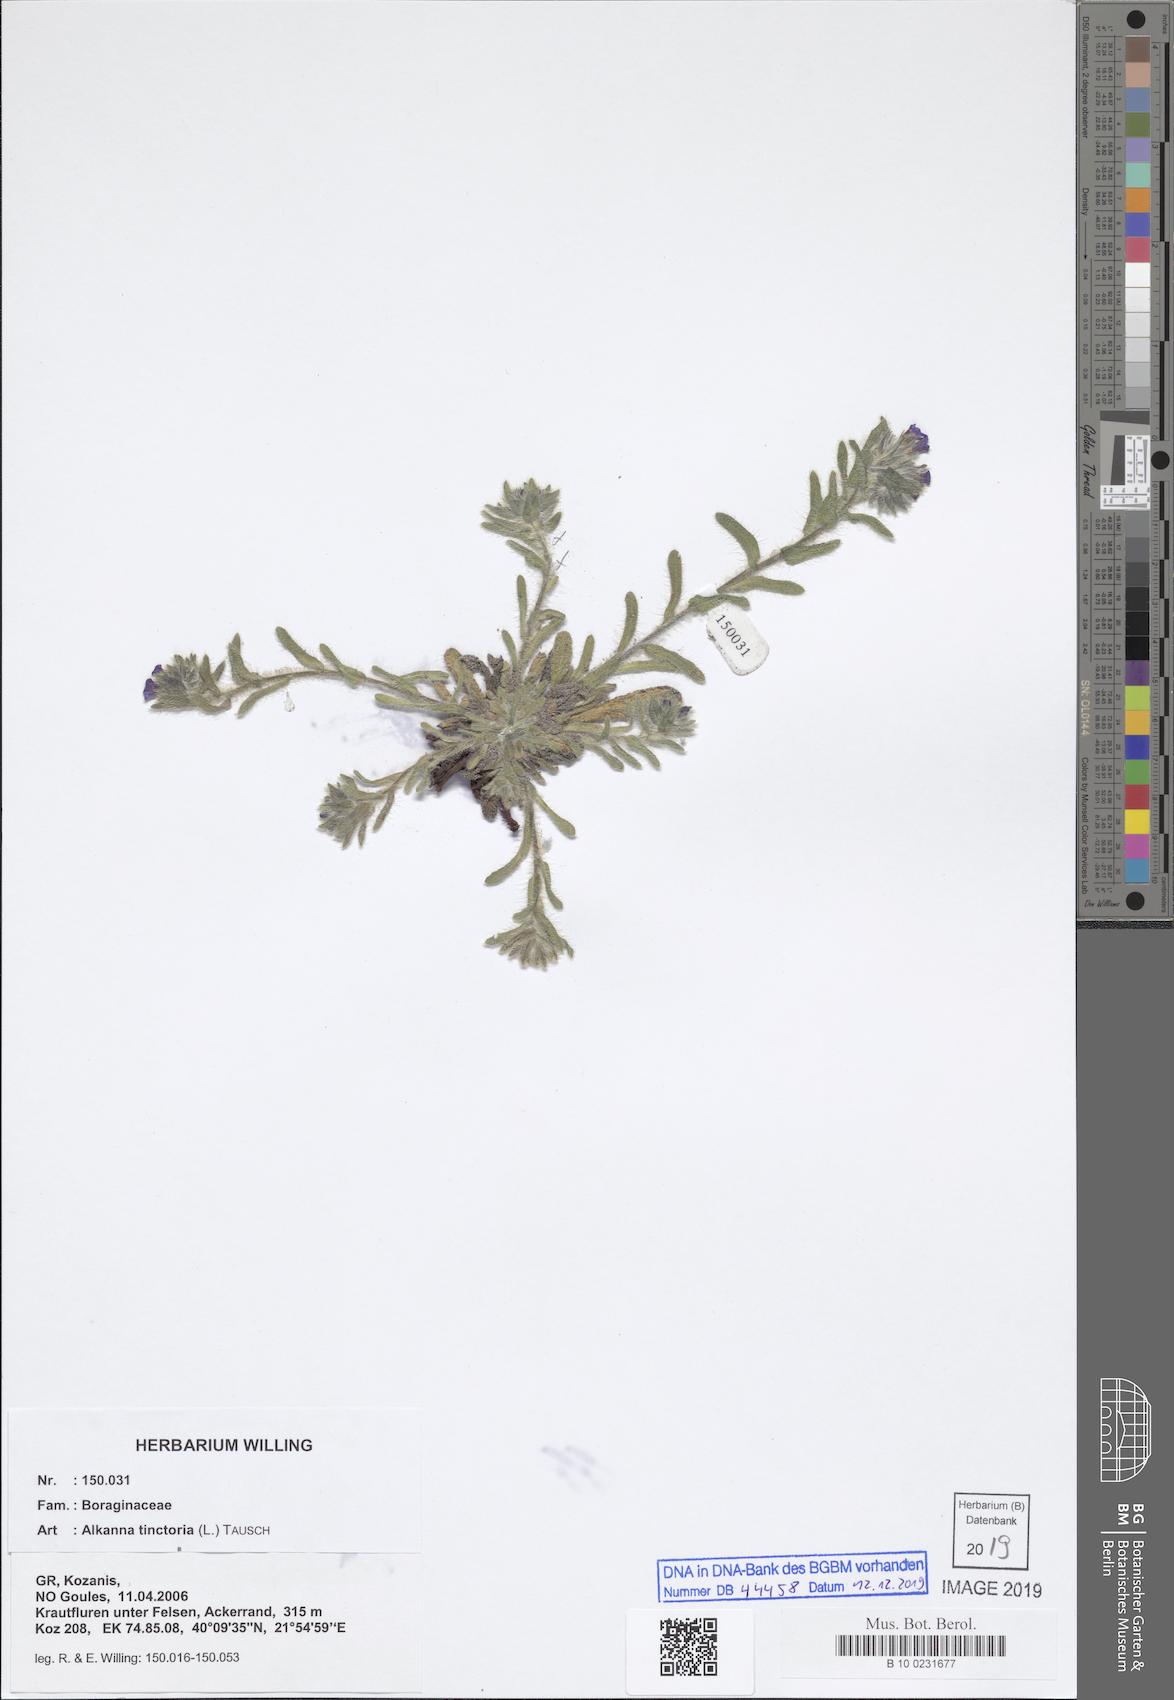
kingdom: Plantae
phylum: Tracheophyta
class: Magnoliopsida
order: Boraginales
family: Boraginaceae
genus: Alkanna
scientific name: Alkanna tinctoria
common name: Dyer's-alkanet
